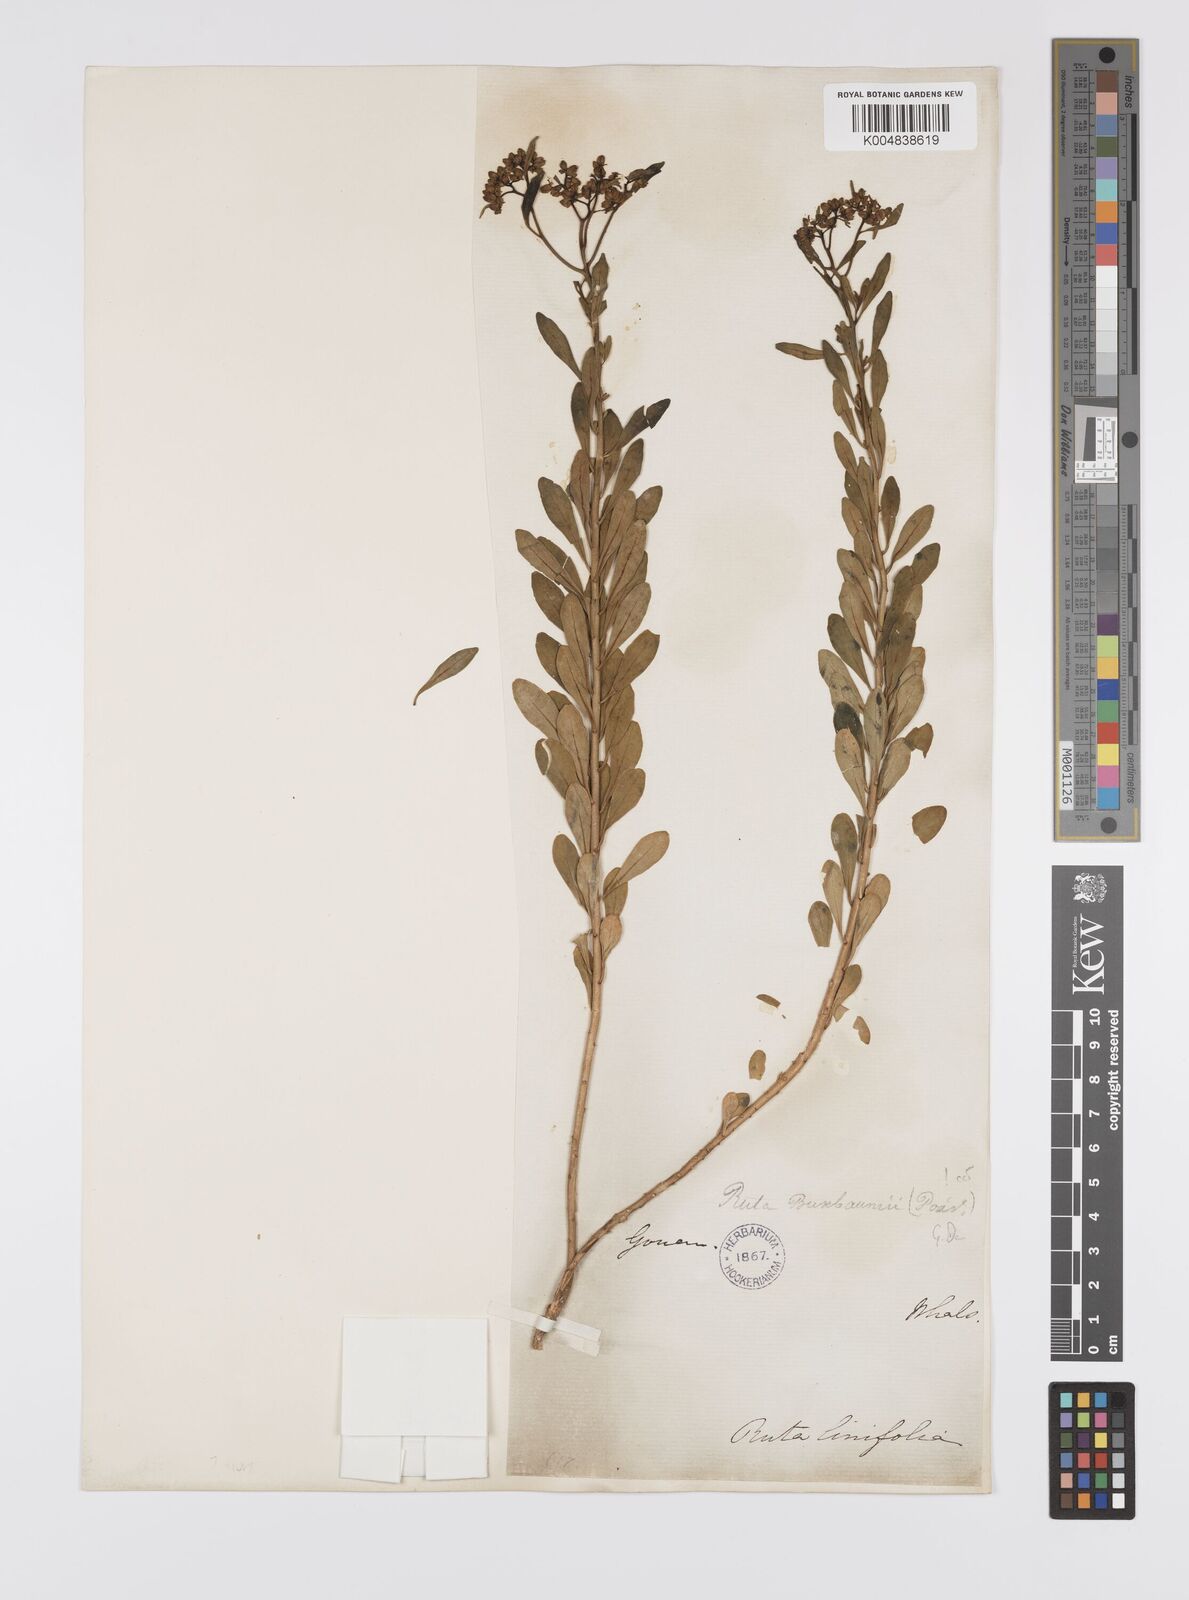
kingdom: Plantae
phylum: Tracheophyta
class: Magnoliopsida
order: Sapindales
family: Rutaceae
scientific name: Rutaceae
